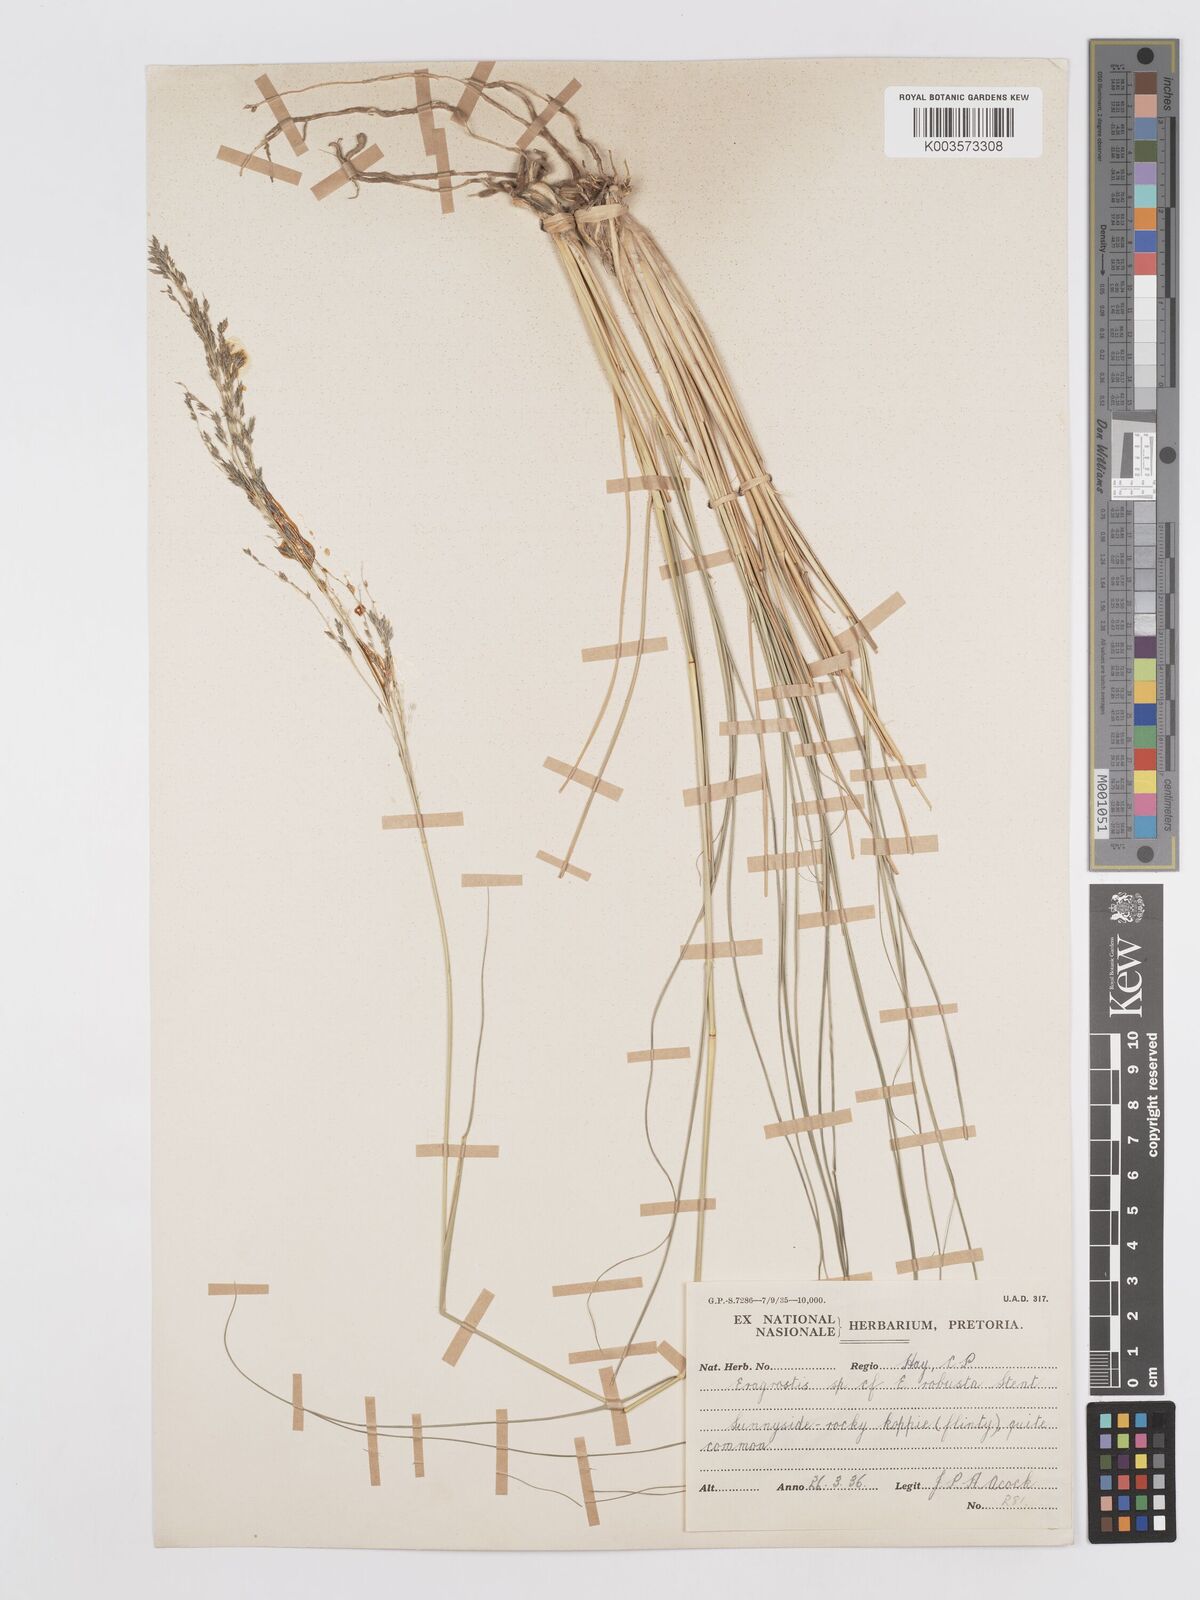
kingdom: Plantae
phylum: Tracheophyta
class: Liliopsida
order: Poales
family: Poaceae
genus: Eragrostis
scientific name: Eragrostis curvula
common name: African love-grass
